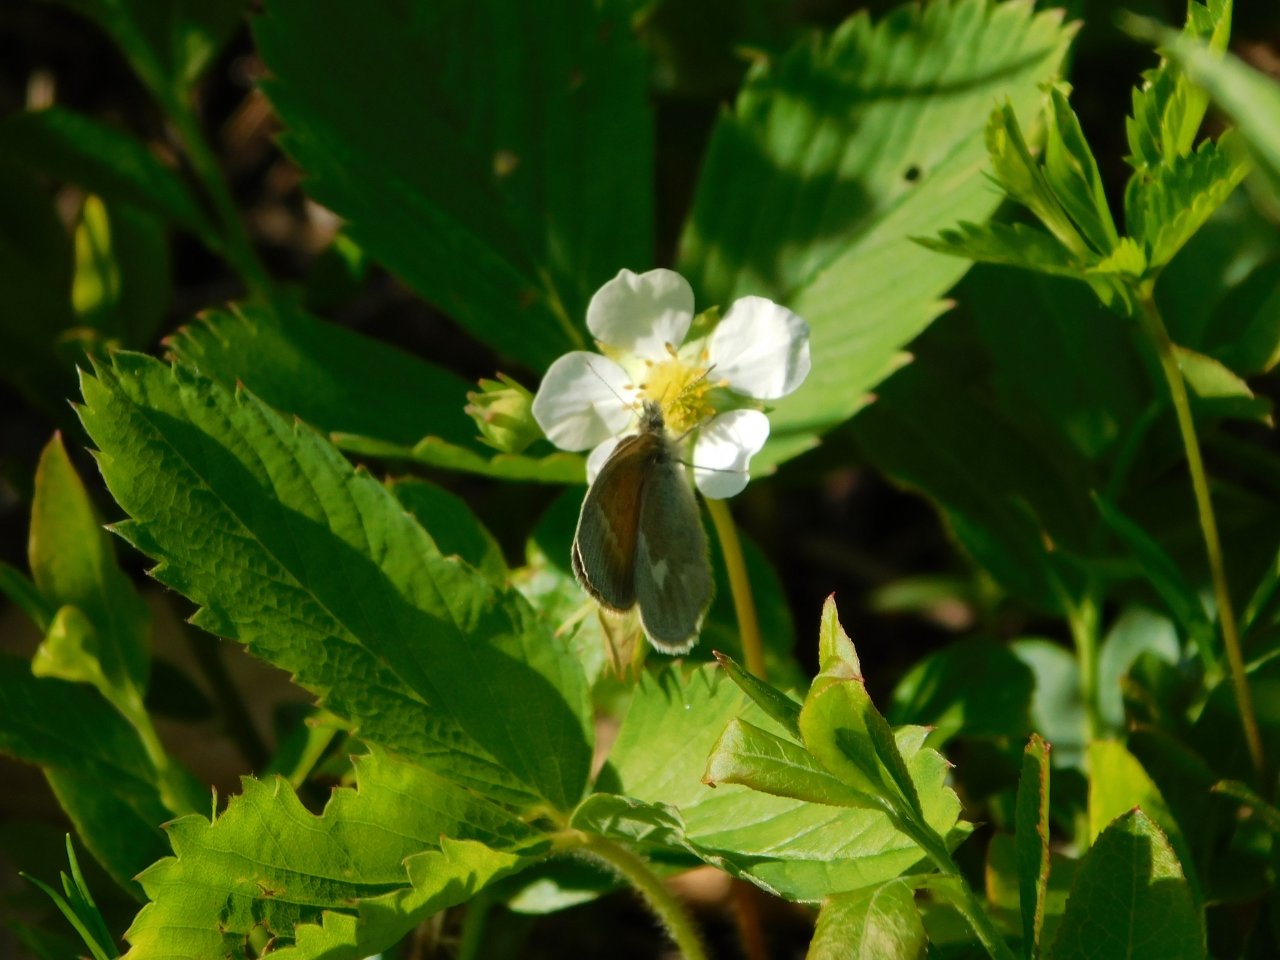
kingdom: Animalia
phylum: Arthropoda
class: Insecta
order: Lepidoptera
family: Nymphalidae
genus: Coenonympha
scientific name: Coenonympha tullia
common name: Large Heath
